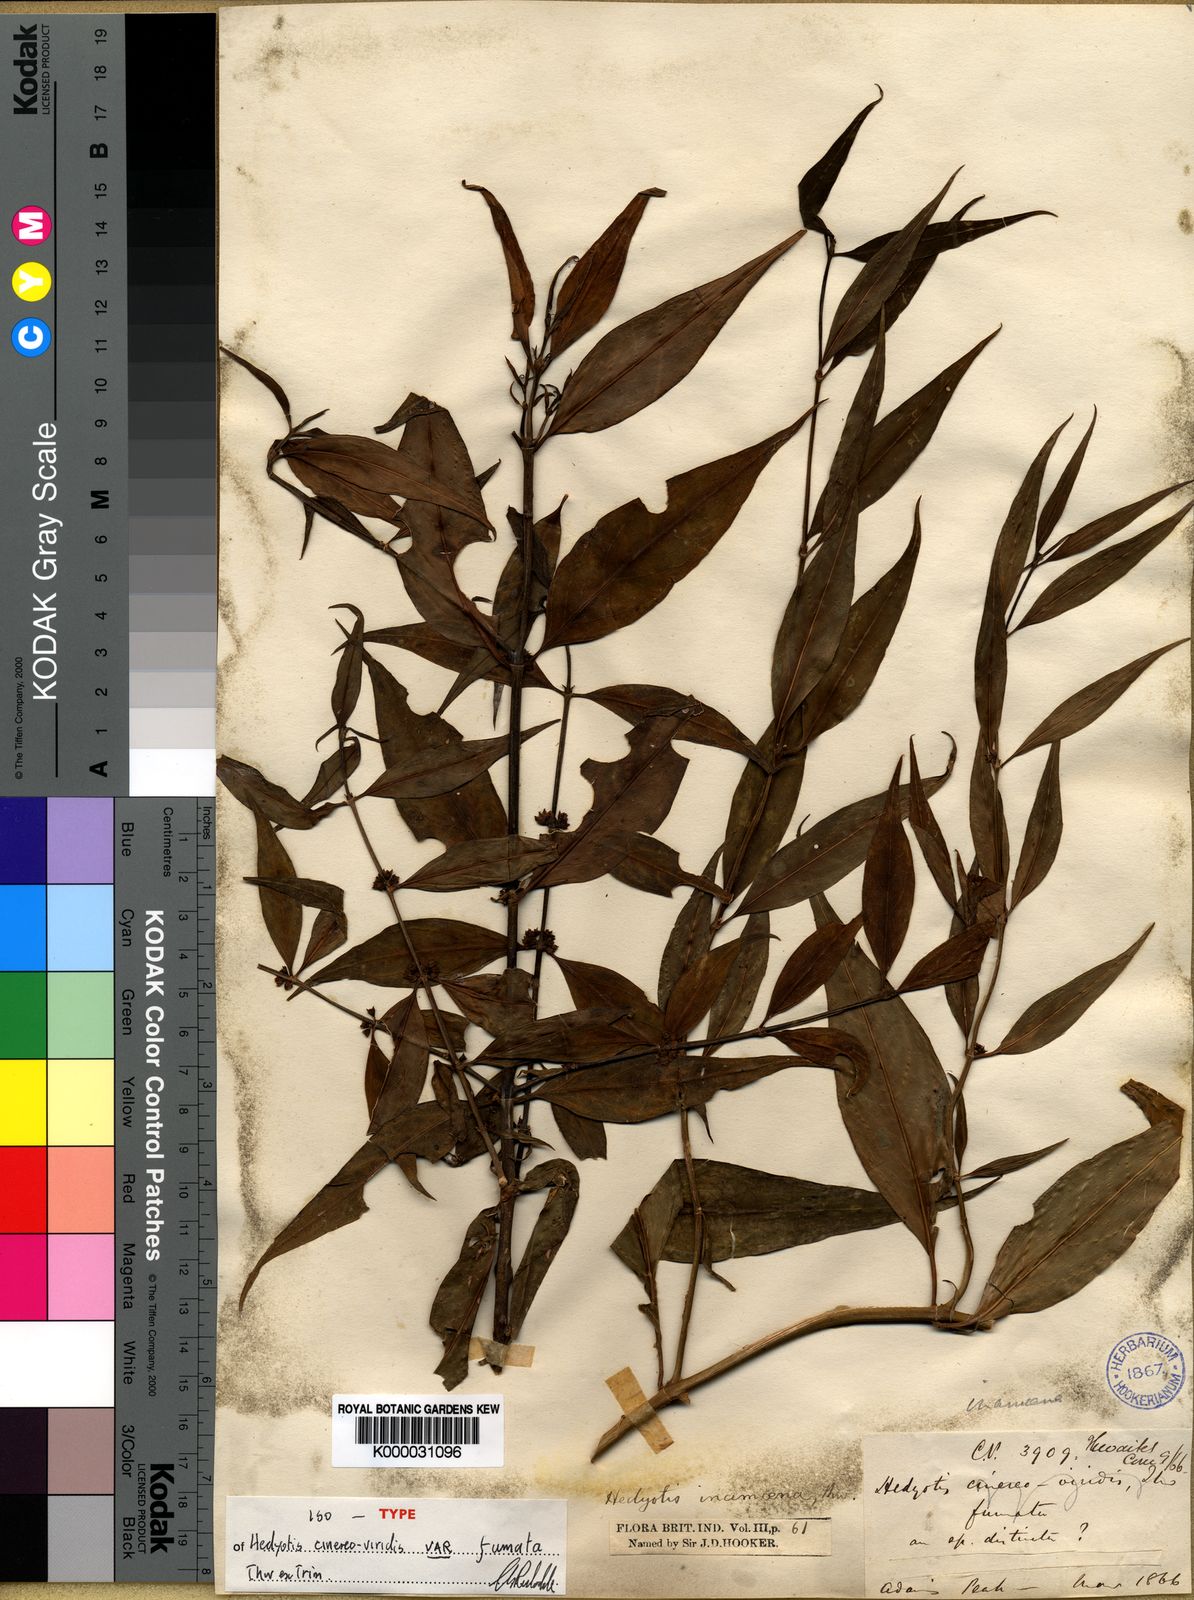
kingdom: Plantae
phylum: Tracheophyta
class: Magnoliopsida
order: Gentianales
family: Rubiaceae
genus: Hedyotis
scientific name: Hedyotis cinereoviridis
